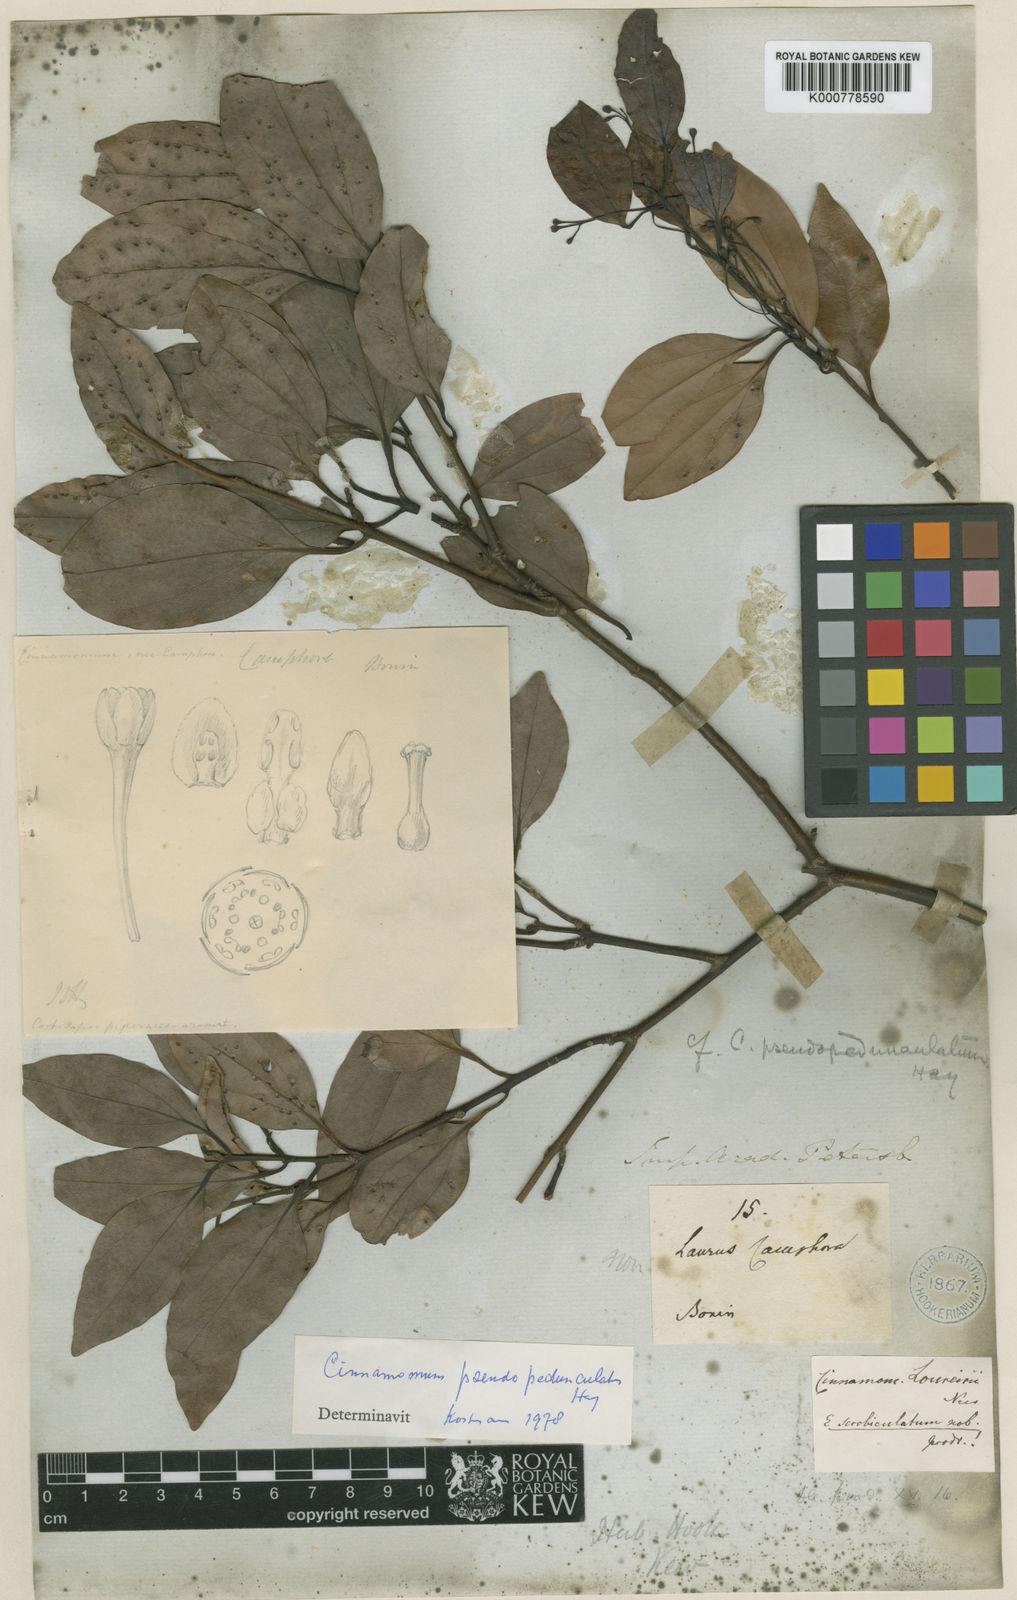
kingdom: Plantae
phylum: Tracheophyta
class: Magnoliopsida
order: Laurales
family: Lauraceae
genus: Cinnamomum
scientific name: Cinnamomum pseudopedunculatum
